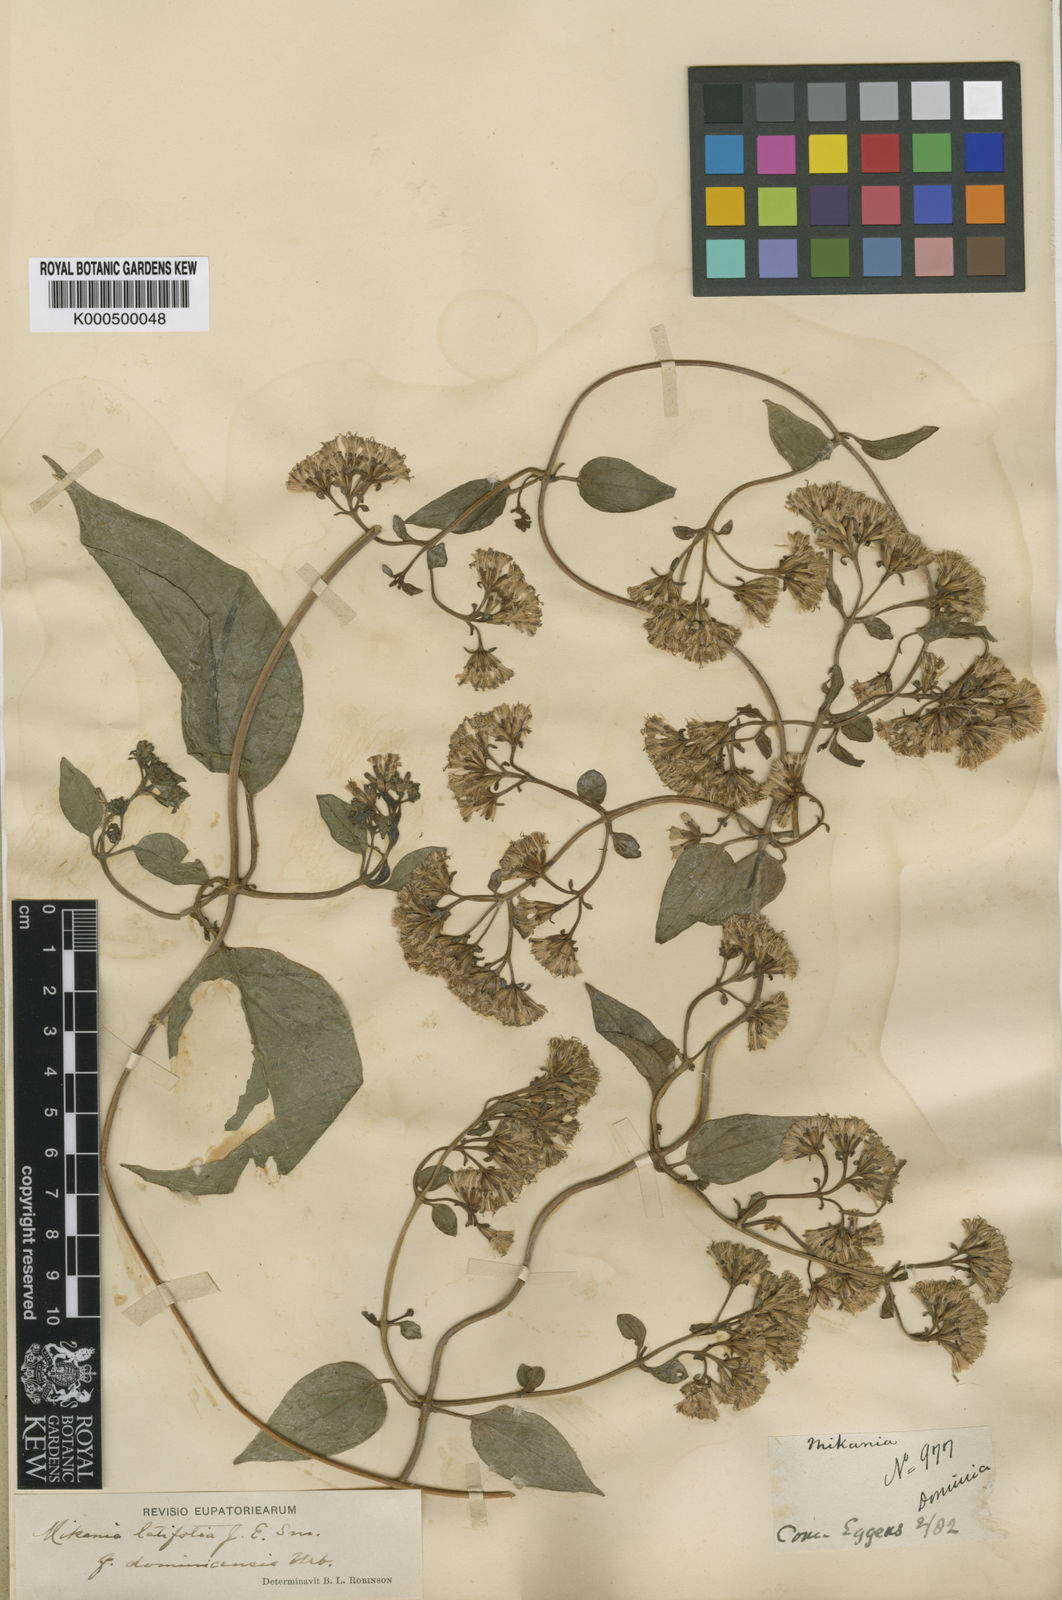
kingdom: Plantae
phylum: Tracheophyta
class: Magnoliopsida
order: Asterales
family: Asteraceae
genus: Mikania
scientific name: Mikania latifolia
